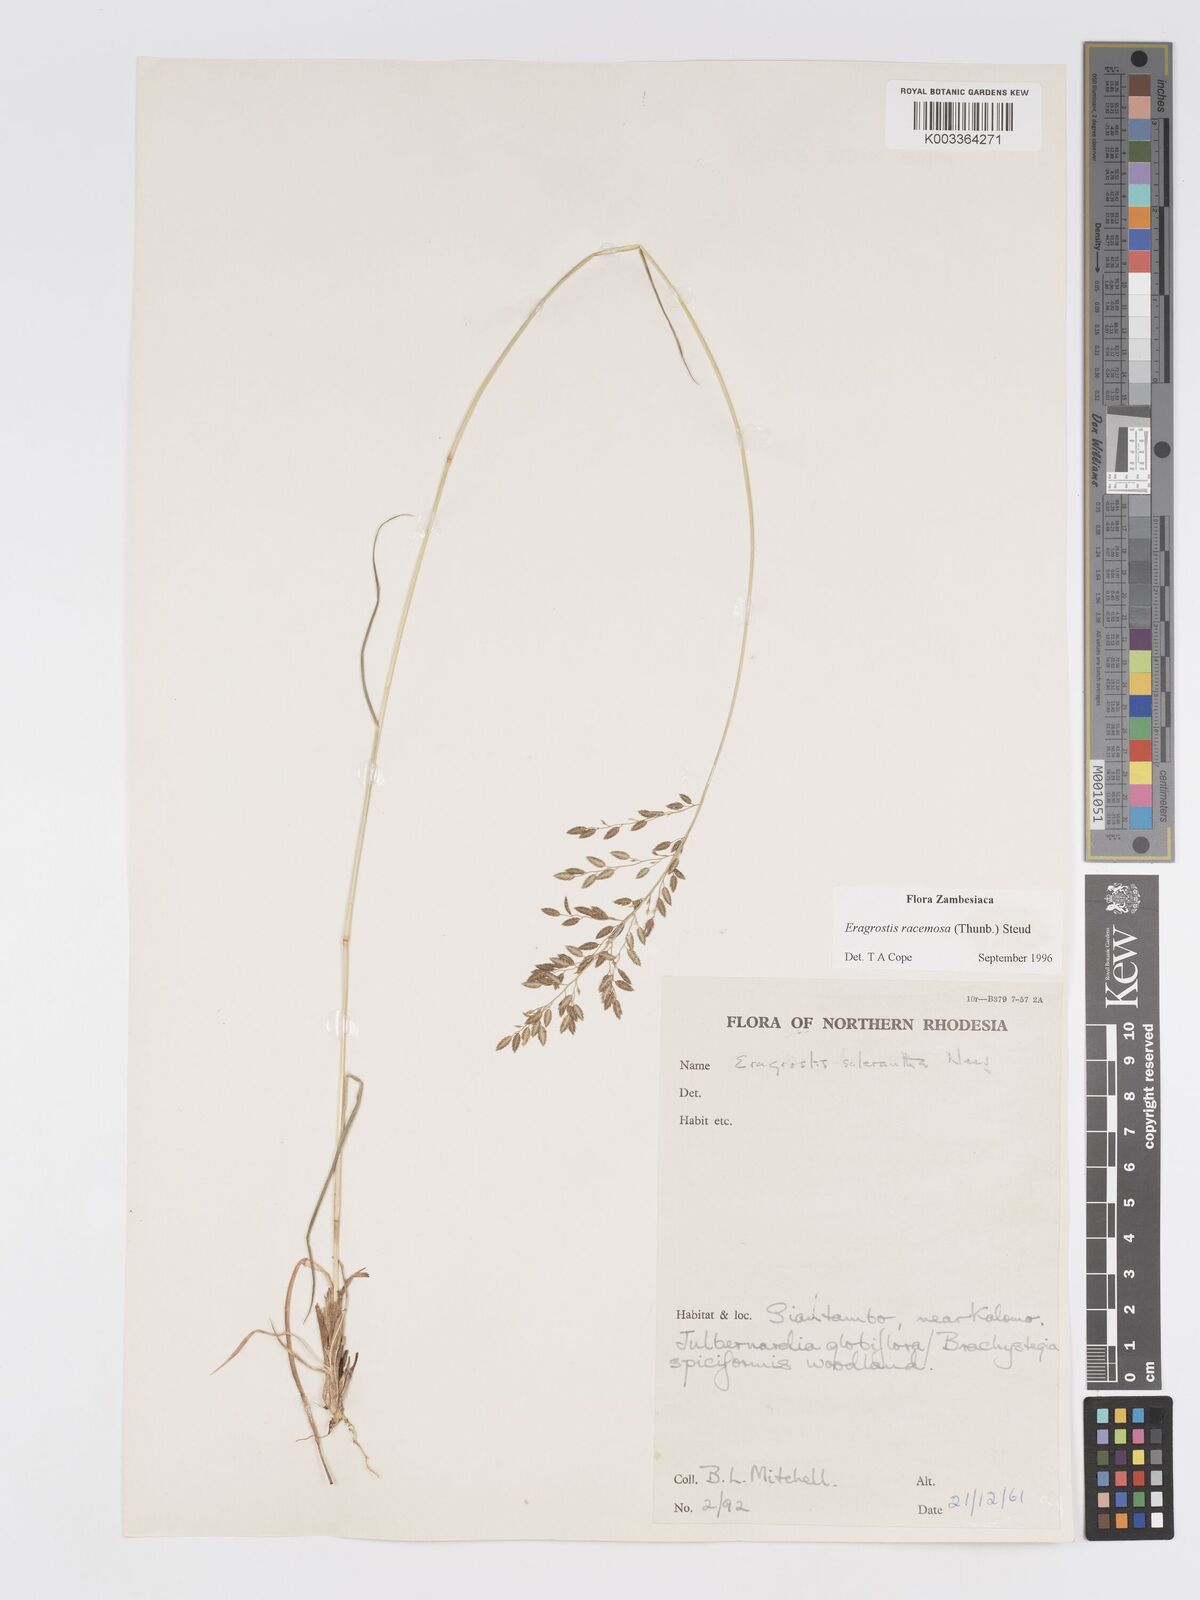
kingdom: Plantae
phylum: Tracheophyta
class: Liliopsida
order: Poales
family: Poaceae
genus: Eragrostis
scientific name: Eragrostis racemosa
